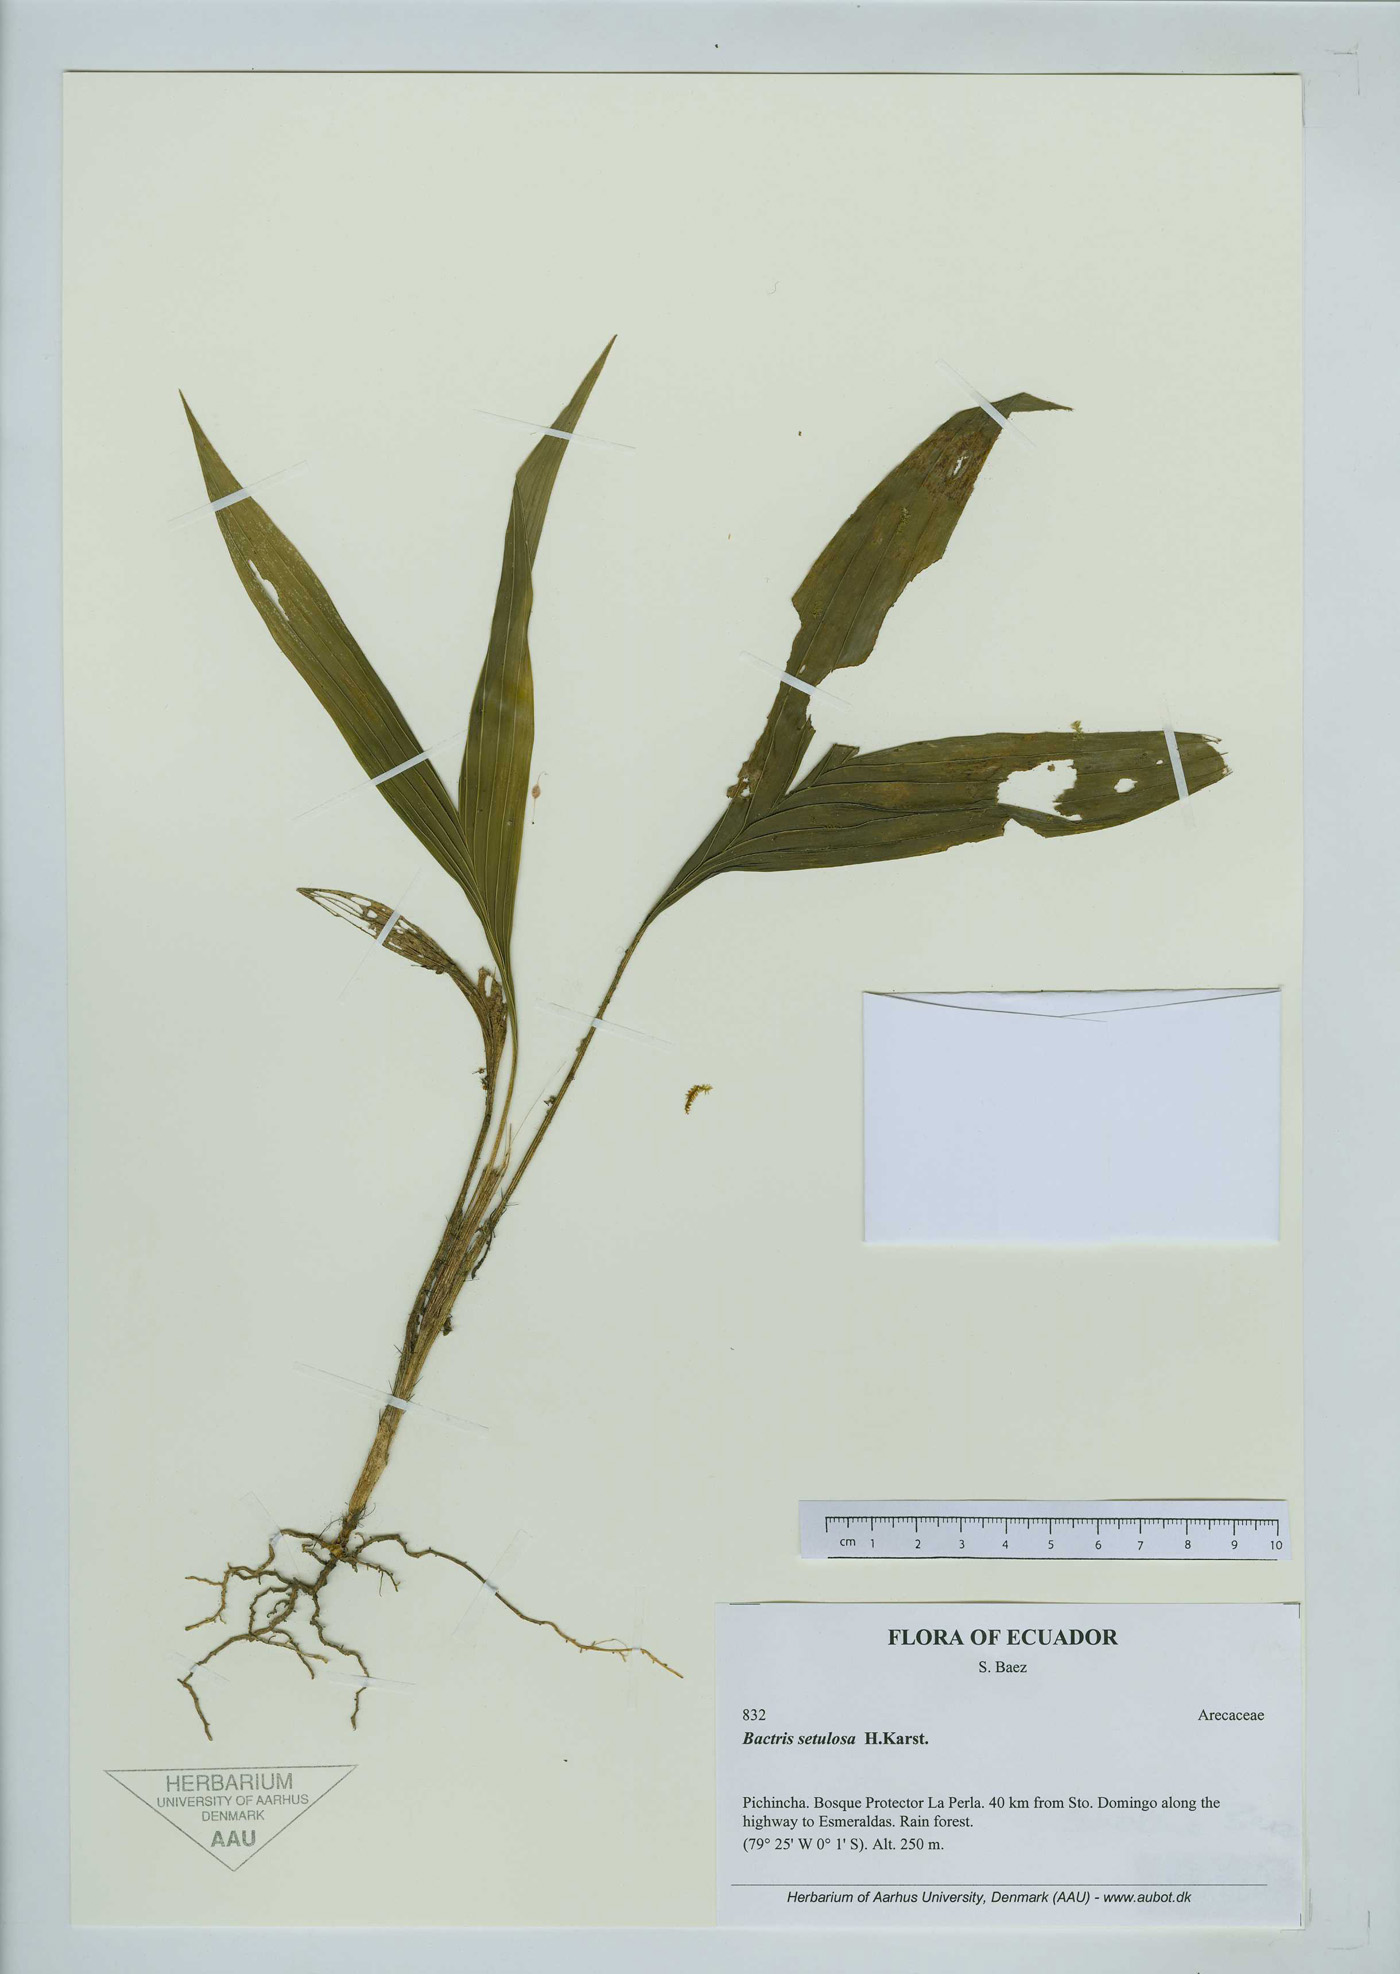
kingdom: Plantae
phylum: Tracheophyta
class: Liliopsida
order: Arecales
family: Arecaceae
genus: Bactris
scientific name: Bactris setulosa
